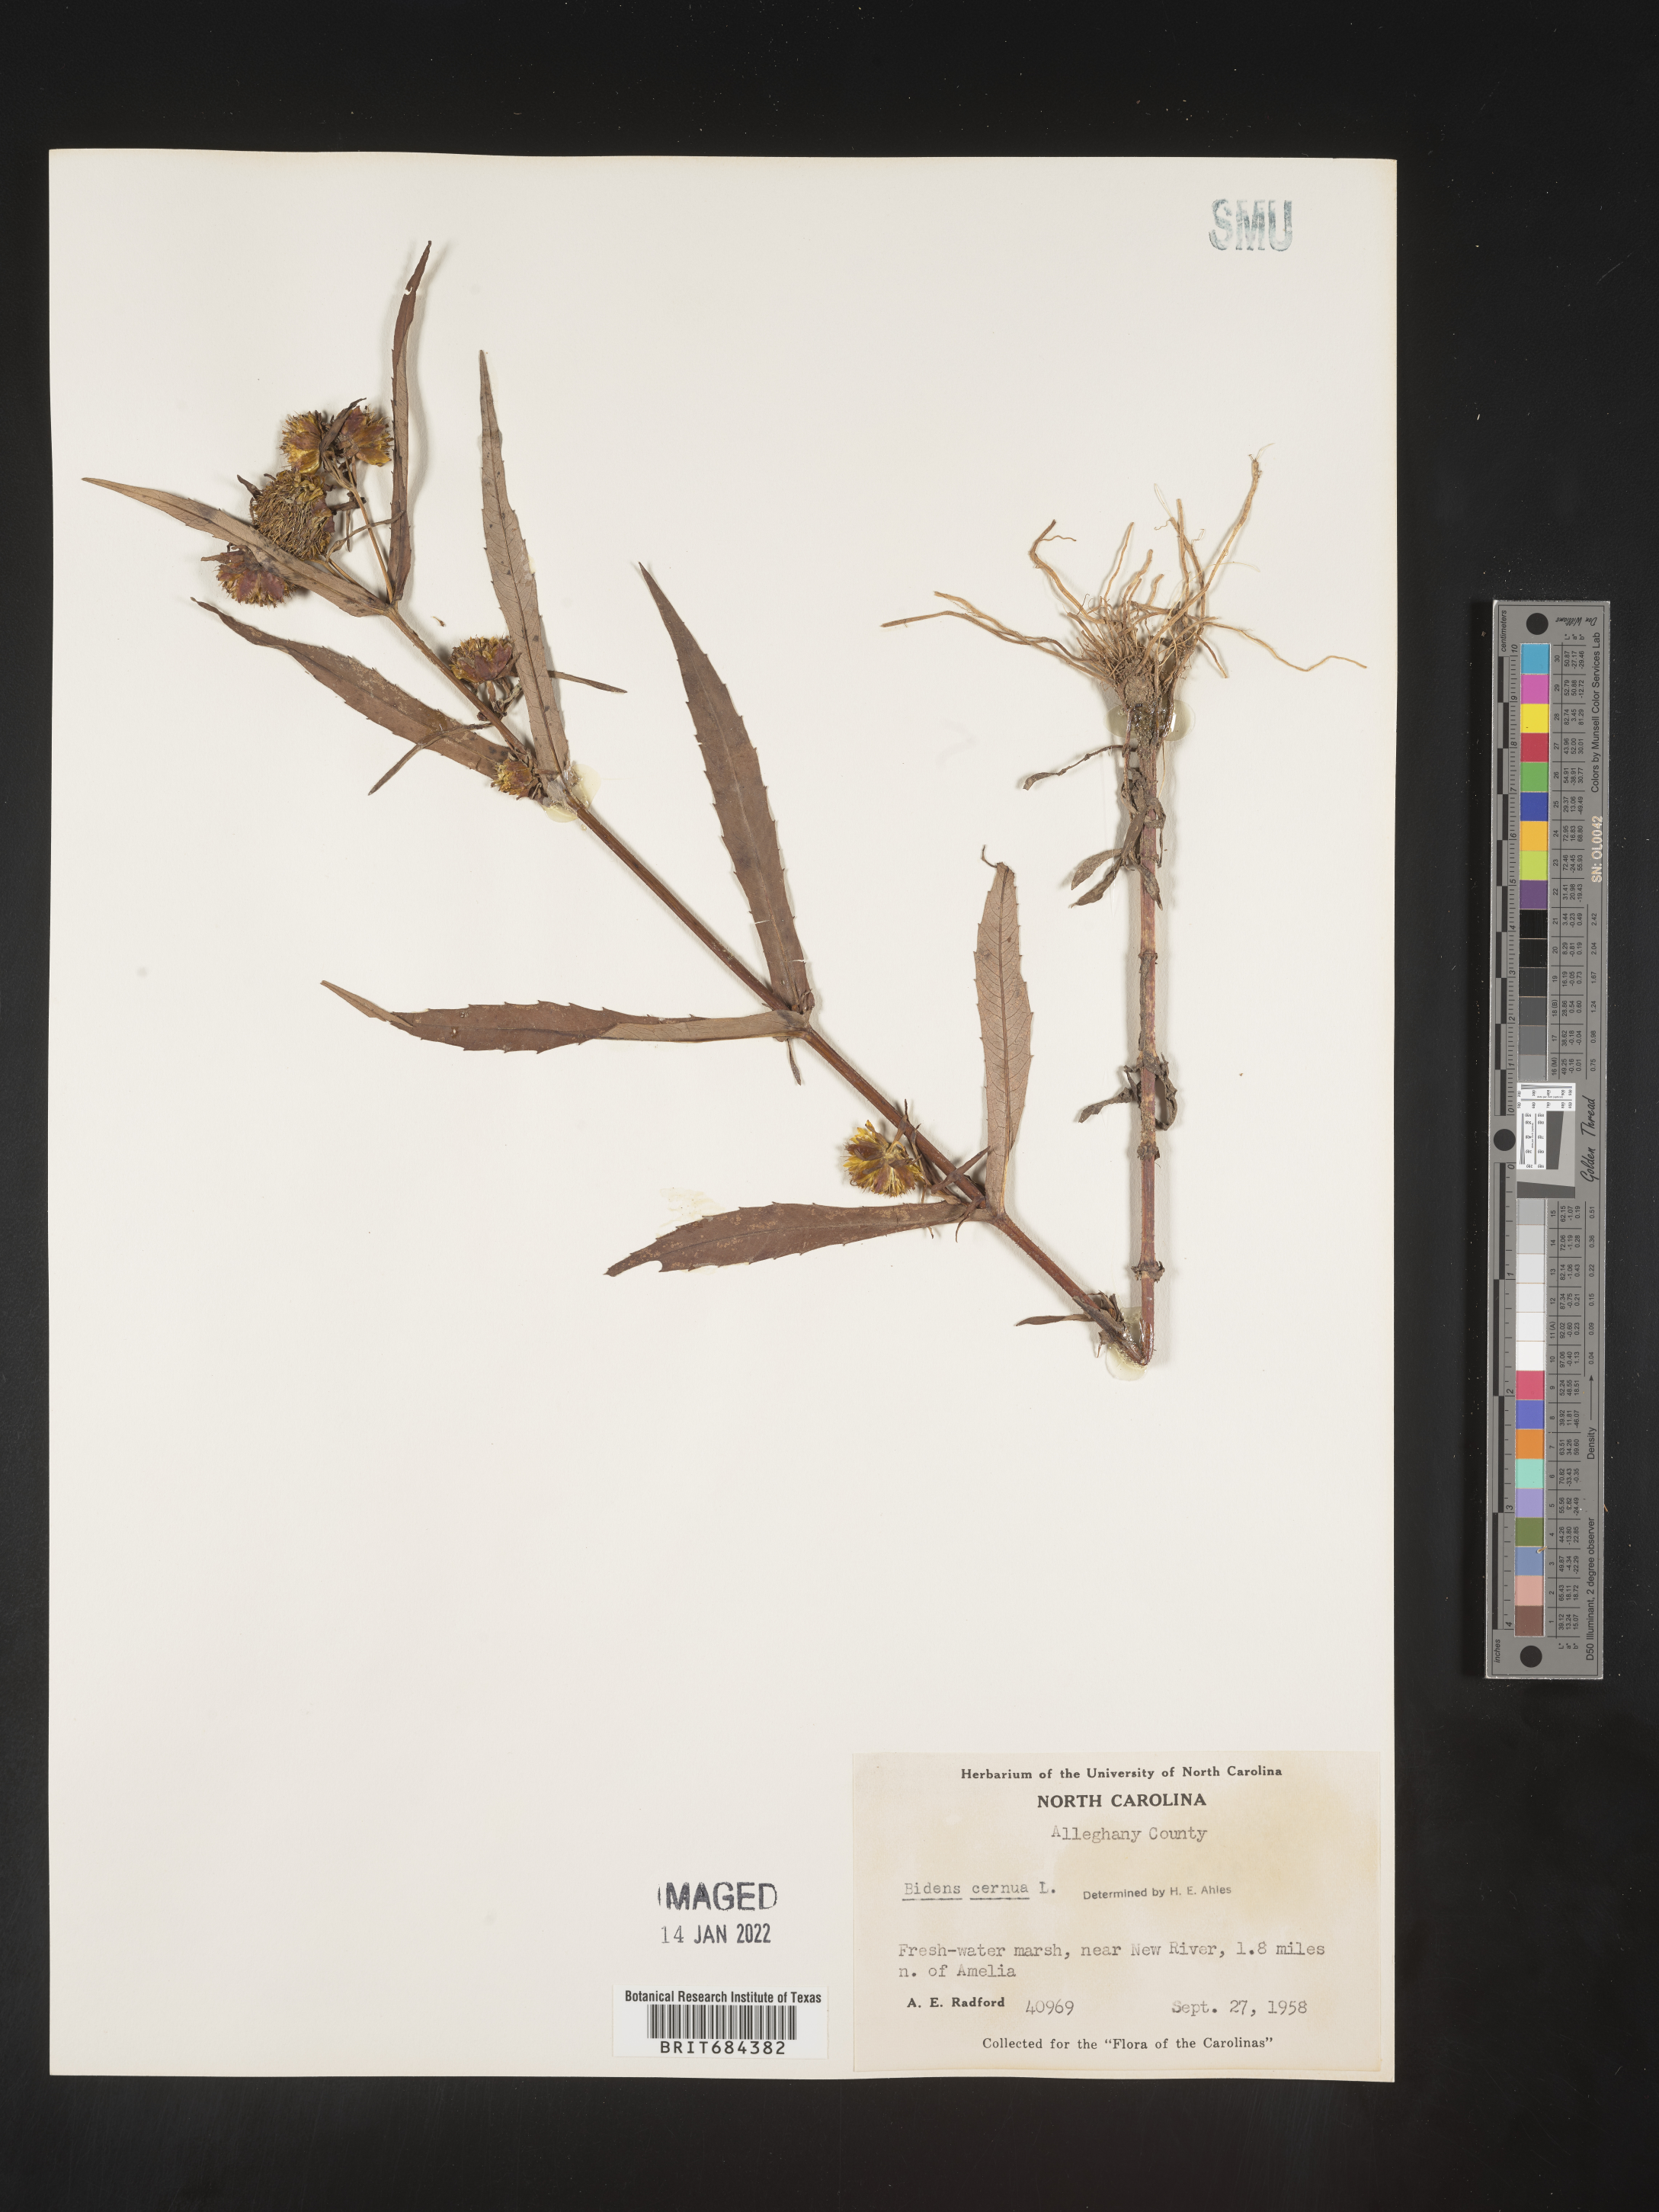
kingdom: Plantae
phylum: Tracheophyta
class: Magnoliopsida
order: Asterales
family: Asteraceae
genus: Bidens
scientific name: Bidens cernua
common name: Nodding bur-marigold
